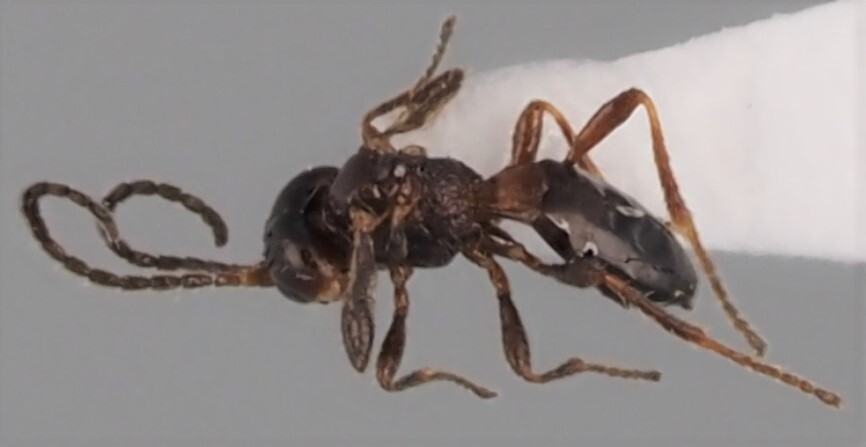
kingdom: Animalia
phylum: Arthropoda
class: Insecta
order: Hymenoptera
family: Braconidae
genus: Dinotrema
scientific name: Dinotrema
